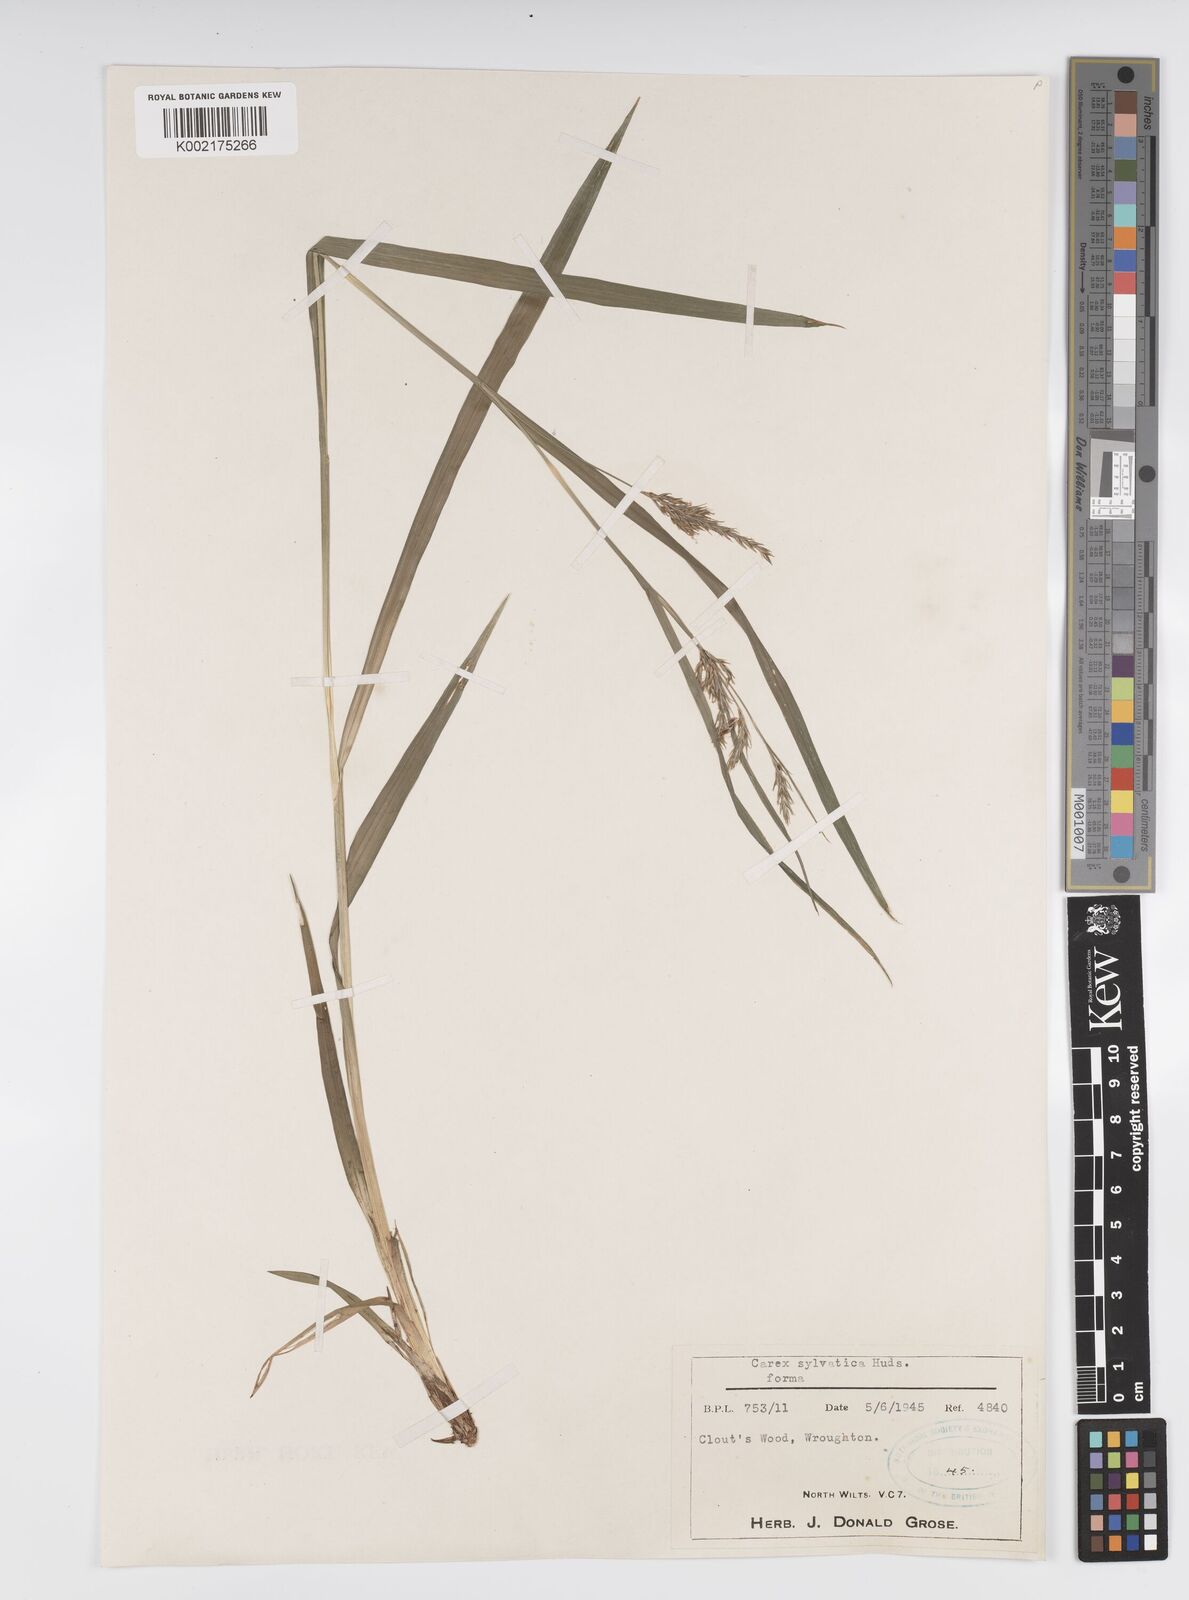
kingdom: Plantae
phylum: Tracheophyta
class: Liliopsida
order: Poales
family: Cyperaceae
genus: Carex
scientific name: Carex sylvatica
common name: Wood-sedge
